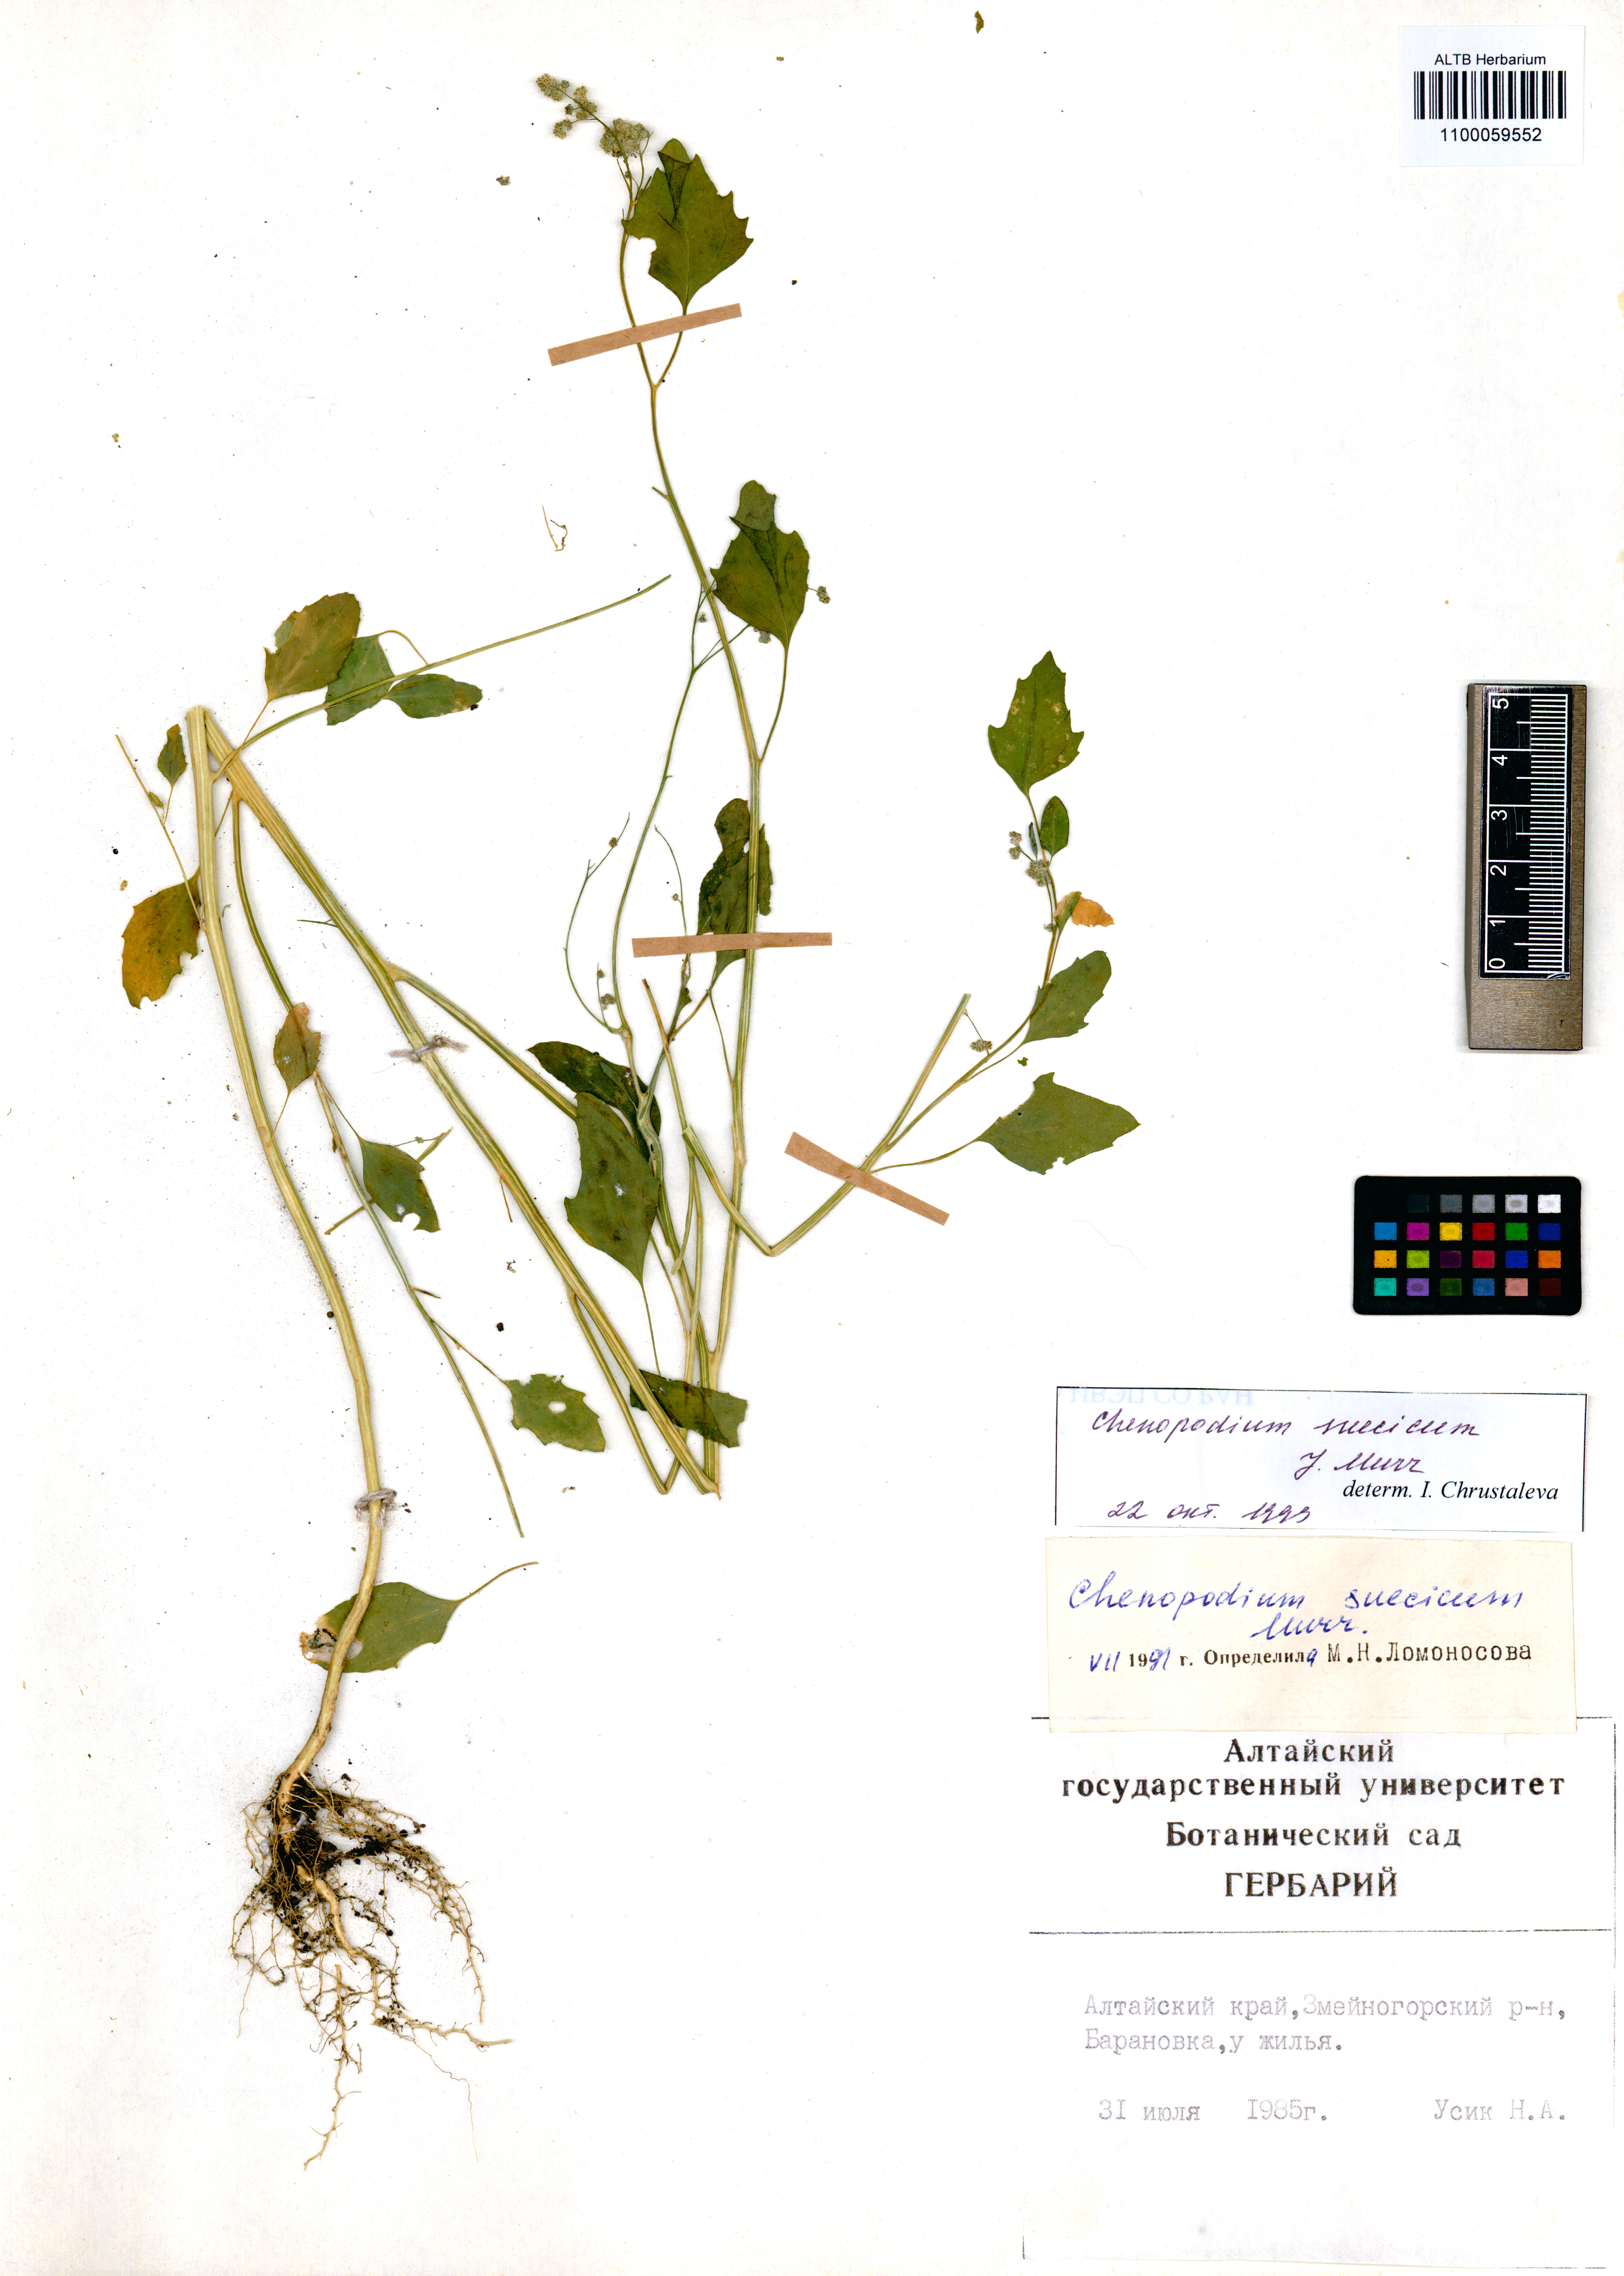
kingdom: Plantae
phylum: Tracheophyta
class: Magnoliopsida
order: Caryophyllales
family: Amaranthaceae
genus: Chenopodium
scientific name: Chenopodium suecicum
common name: Swedish goosefoot
